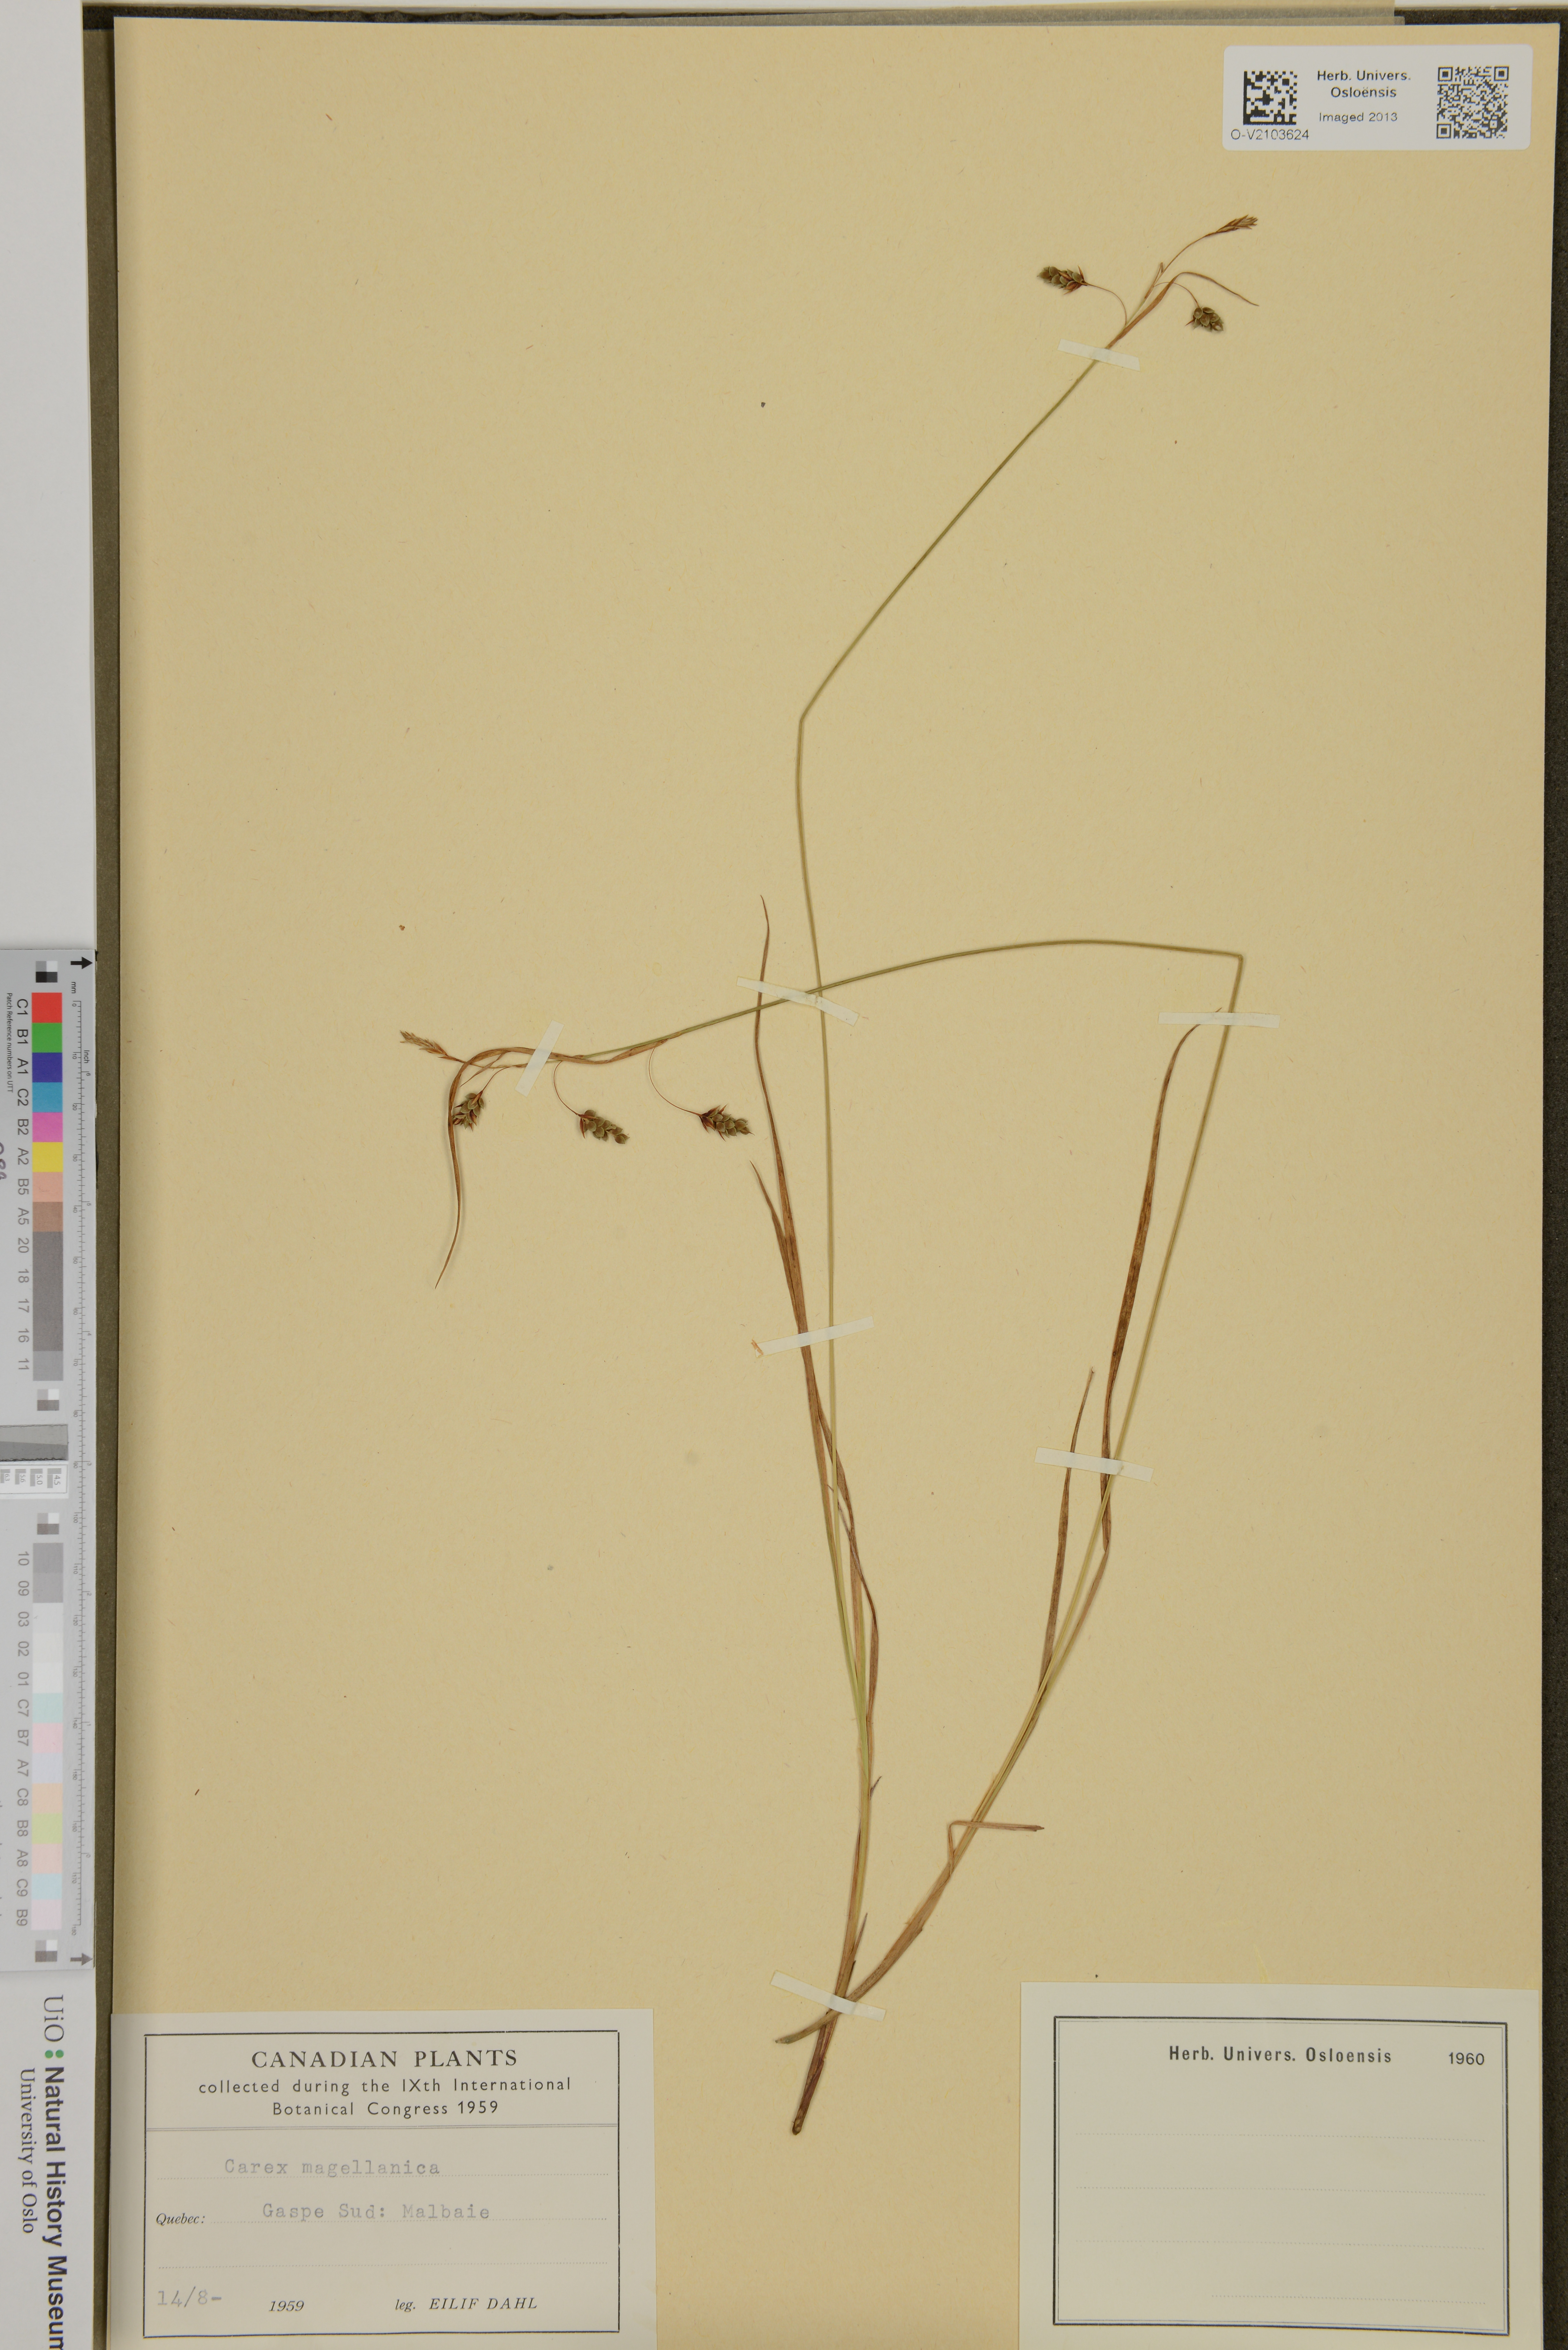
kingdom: Plantae
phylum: Tracheophyta
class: Liliopsida
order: Poales
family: Cyperaceae
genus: Carex
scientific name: Carex magellanica
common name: Bog sedge
